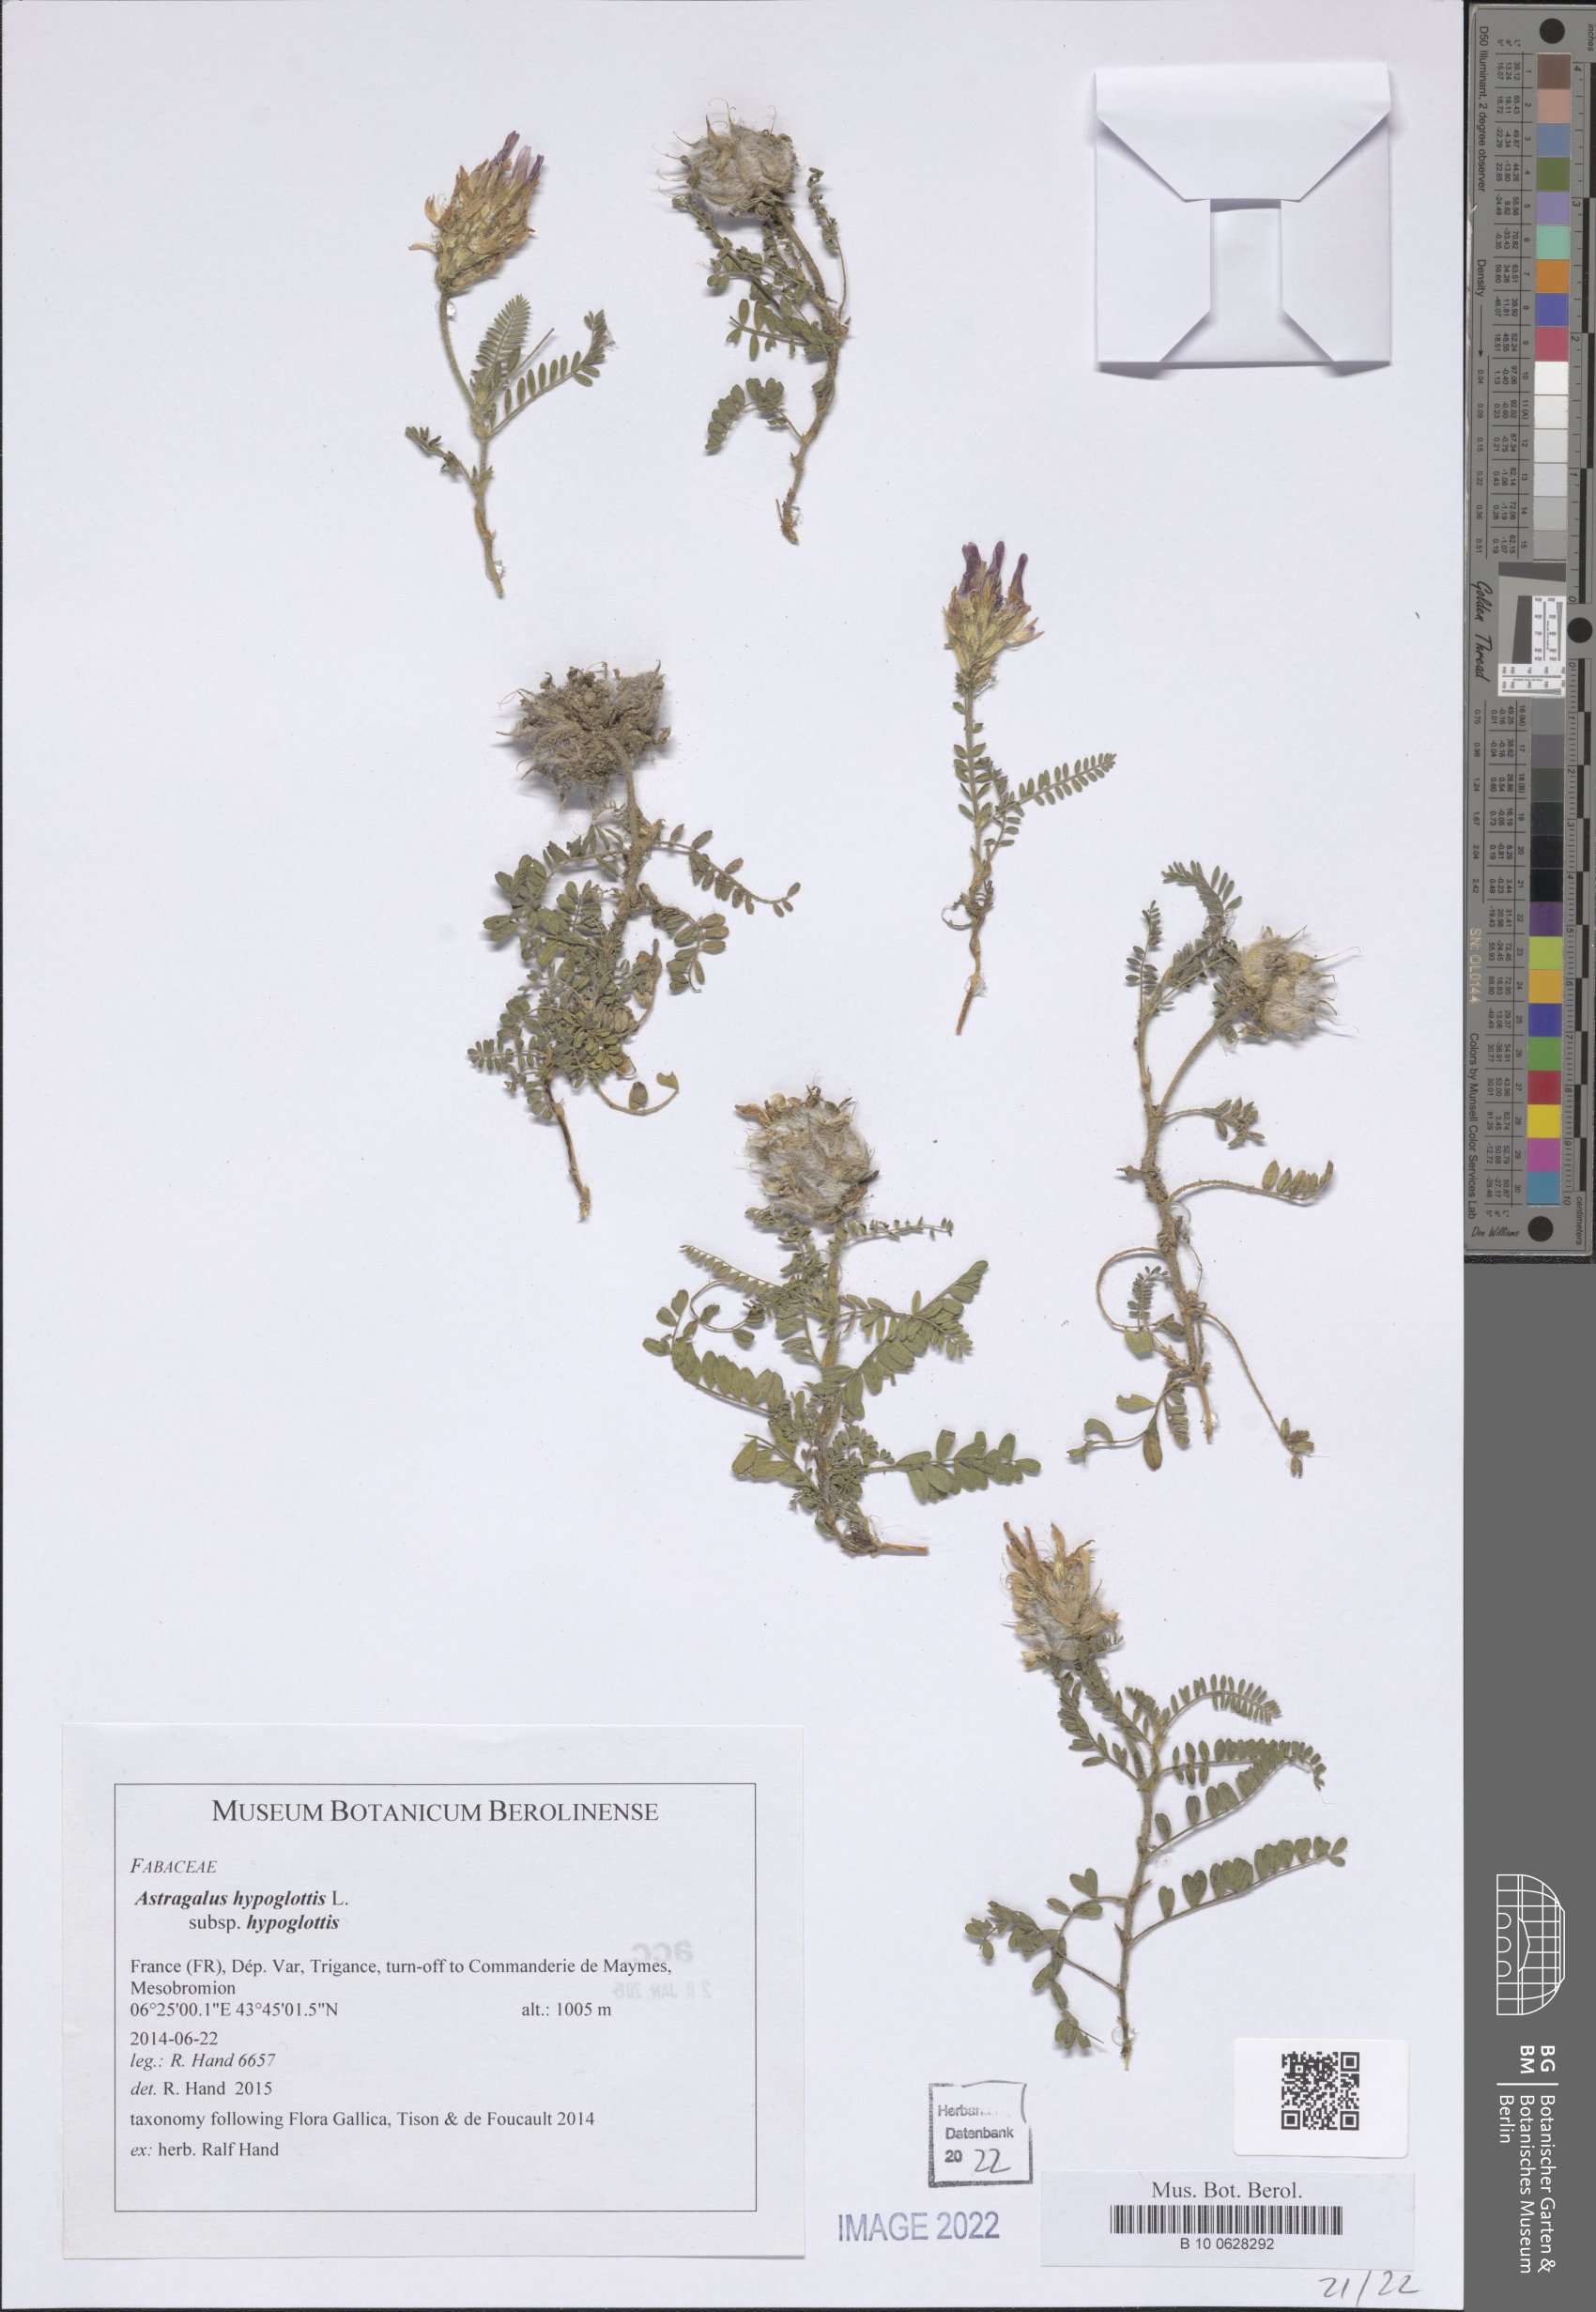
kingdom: Plantae
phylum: Tracheophyta
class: Magnoliopsida
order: Fabales
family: Fabaceae
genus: Astragalus
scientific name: Astragalus hypoglottis
